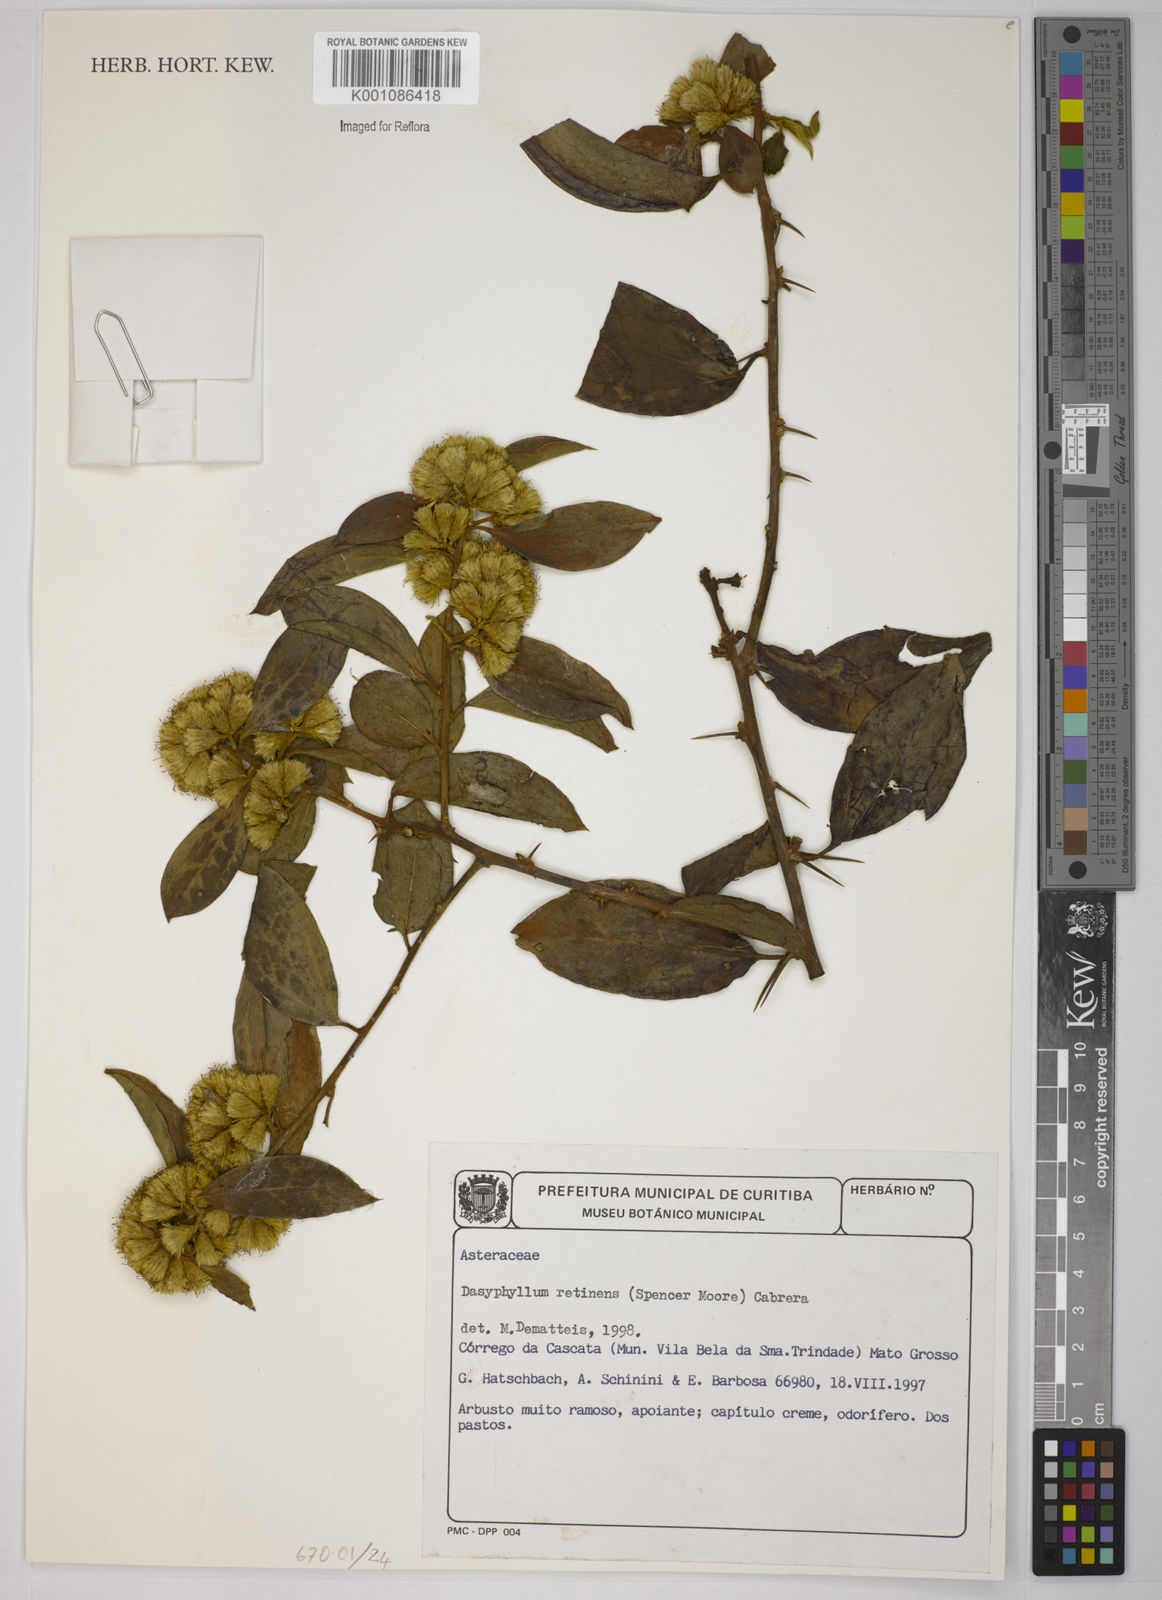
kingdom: Plantae
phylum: Tracheophyta
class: Magnoliopsida
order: Asterales
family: Asteraceae
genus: Dasyphyllum
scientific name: Dasyphyllum brasiliense
